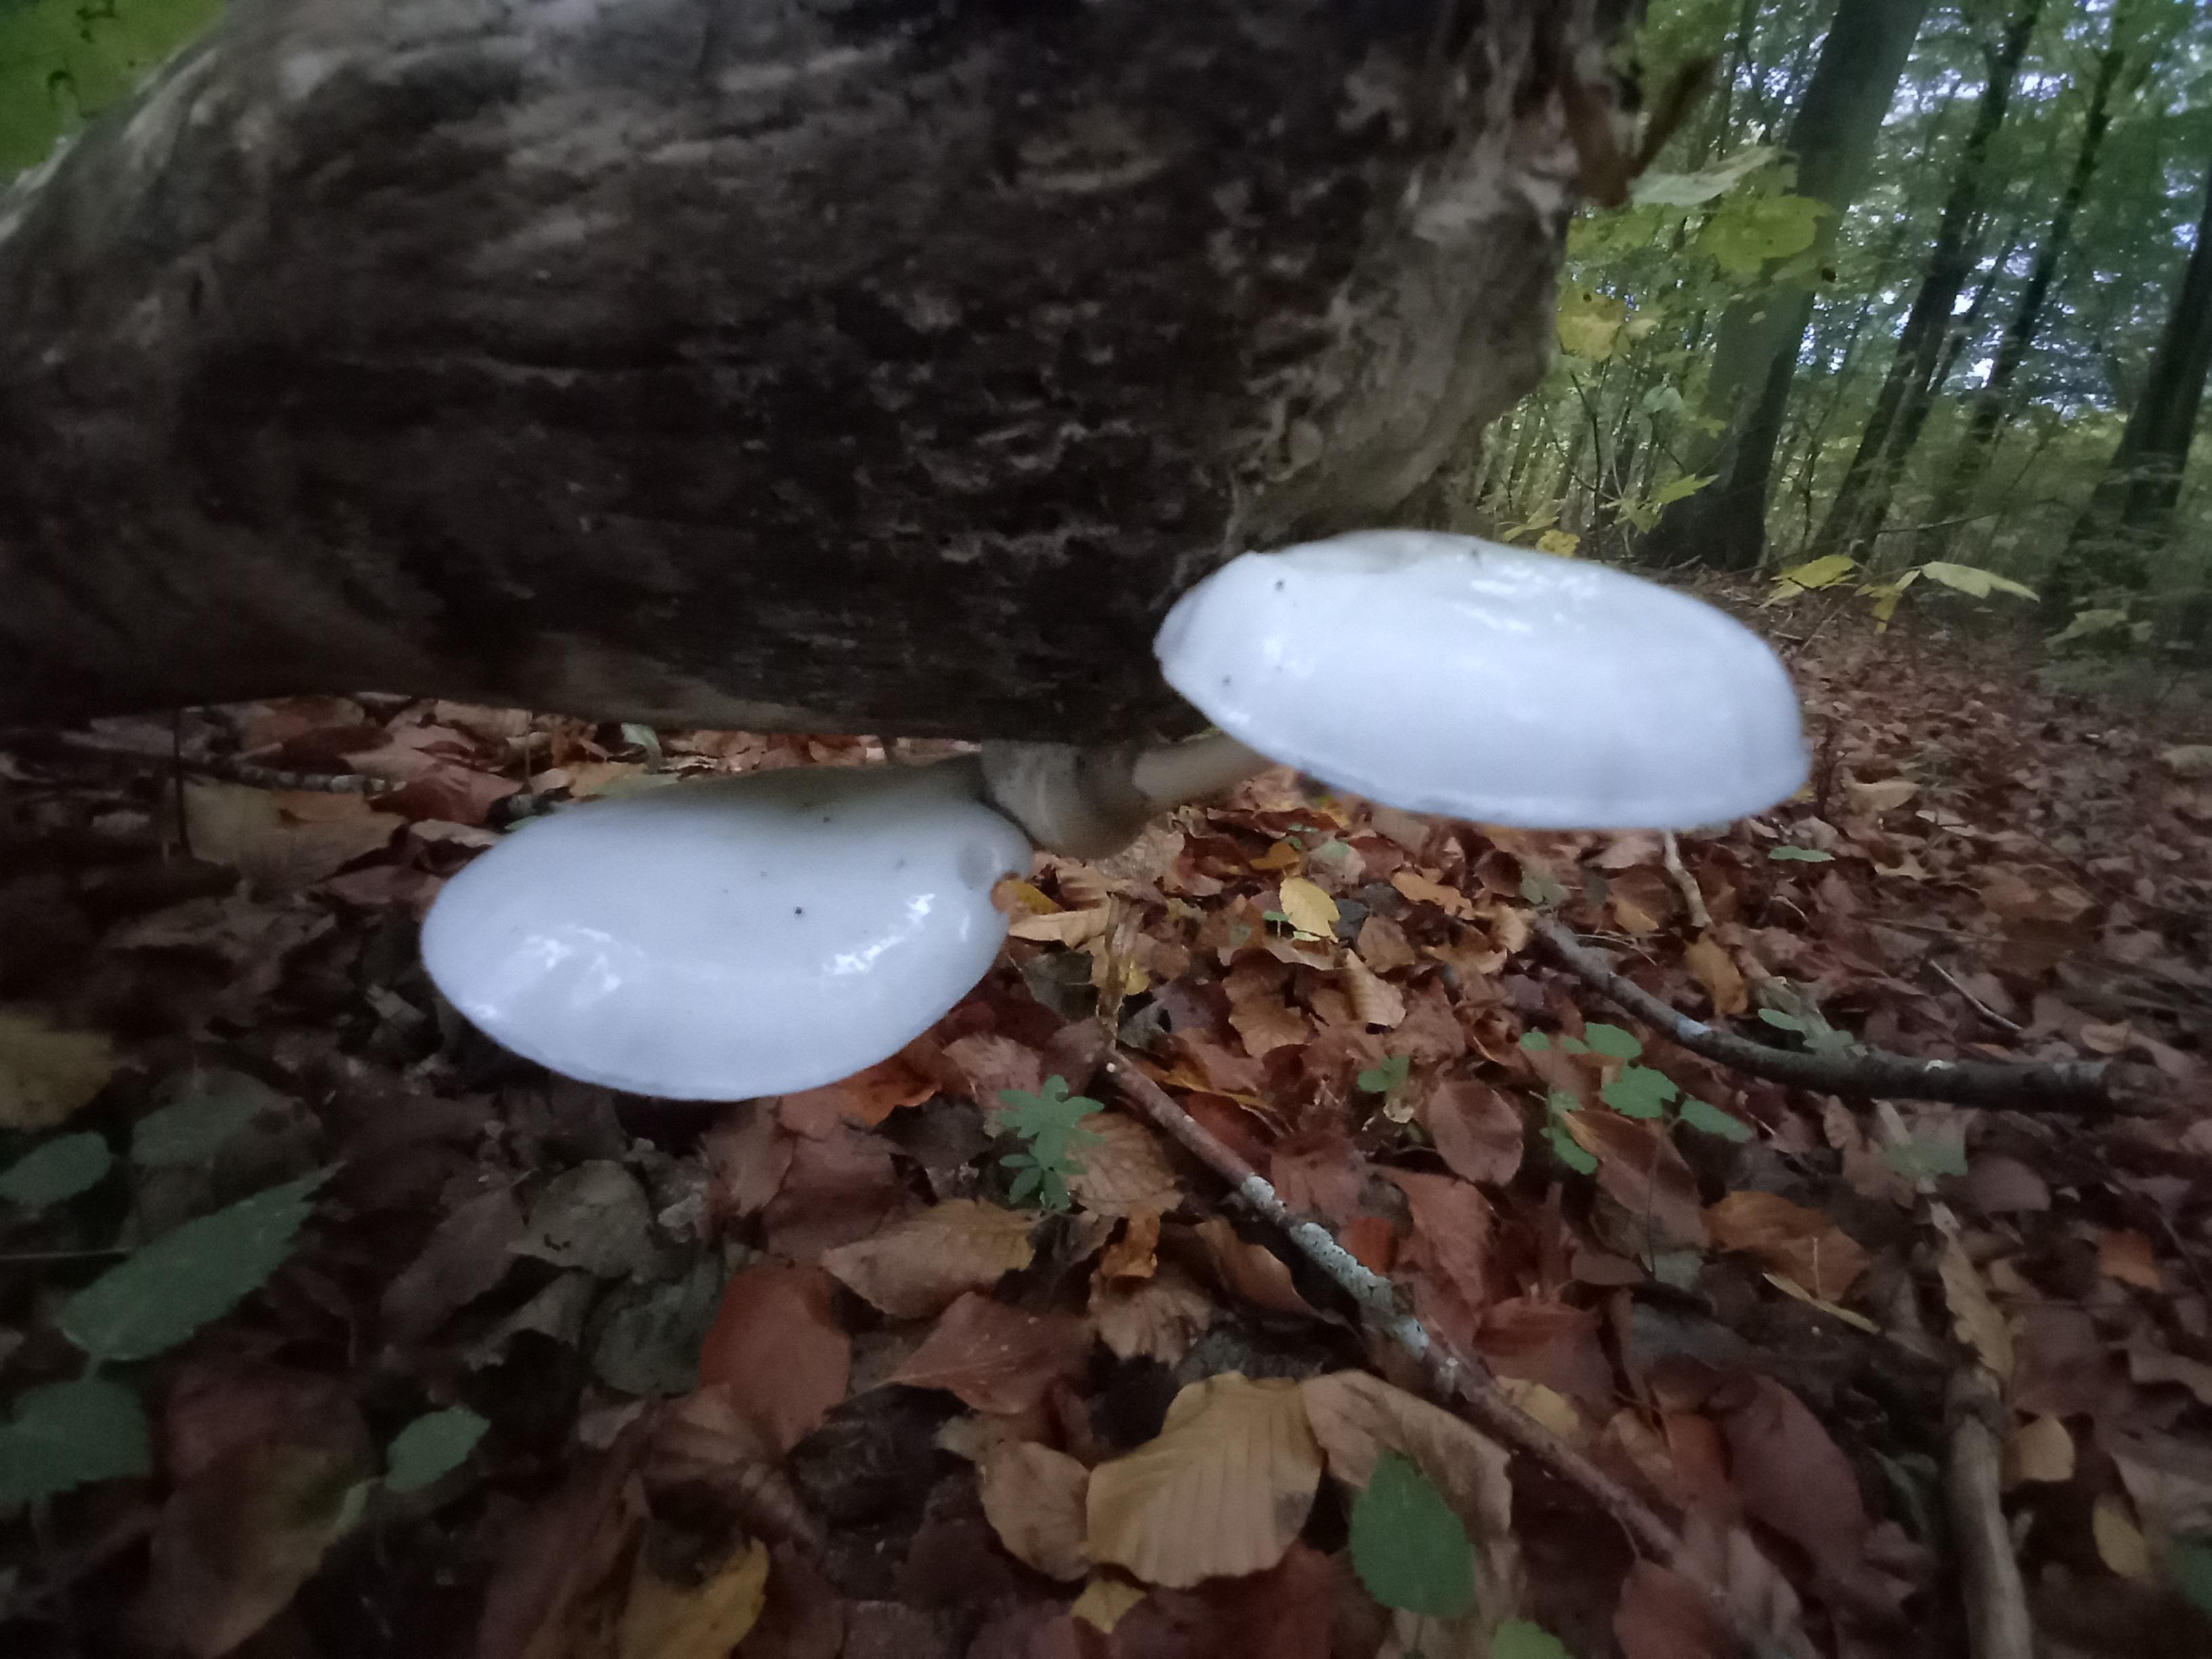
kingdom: Fungi
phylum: Basidiomycota
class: Agaricomycetes
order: Agaricales
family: Physalacriaceae
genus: Mucidula
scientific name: Mucidula mucida
